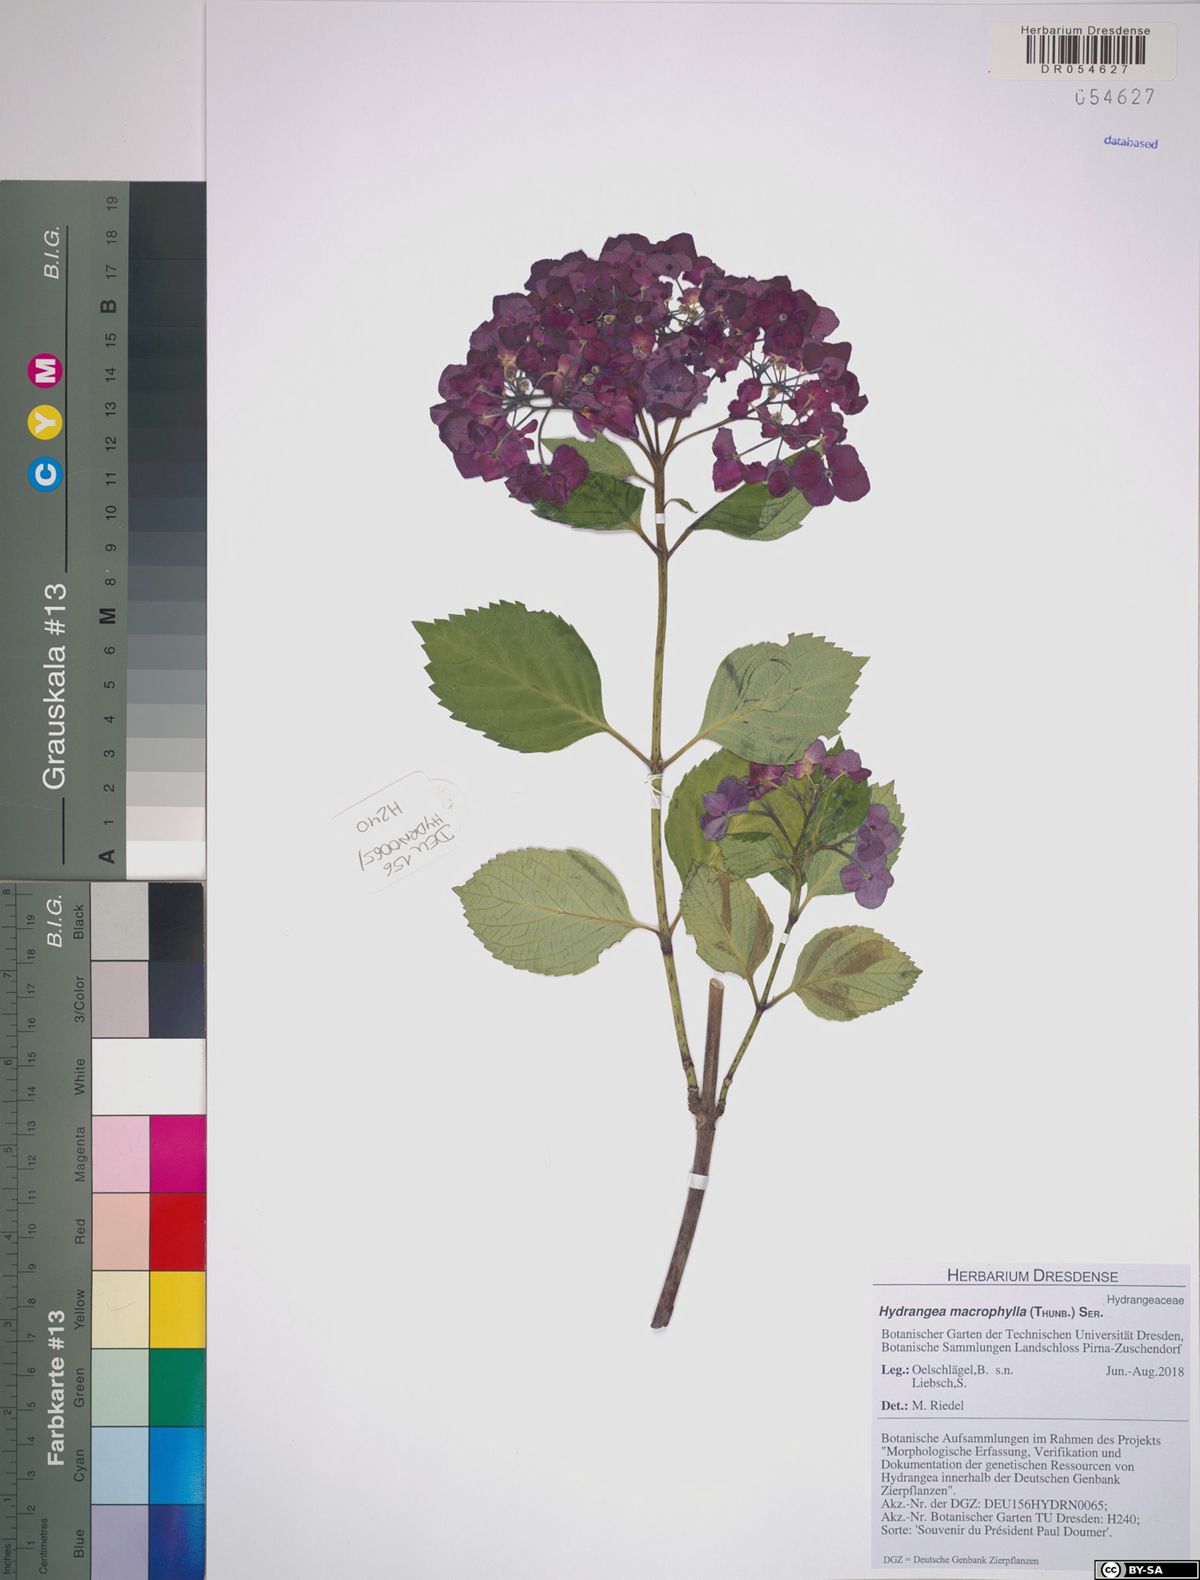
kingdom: Plantae
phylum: Tracheophyta
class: Magnoliopsida
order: Cornales
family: Hydrangeaceae
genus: Hydrangea
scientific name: Hydrangea macrophylla
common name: Hydrangea
